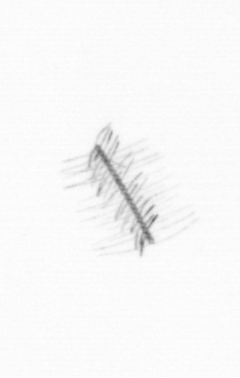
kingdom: Chromista
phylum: Ochrophyta
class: Bacillariophyceae
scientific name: Bacillariophyceae
